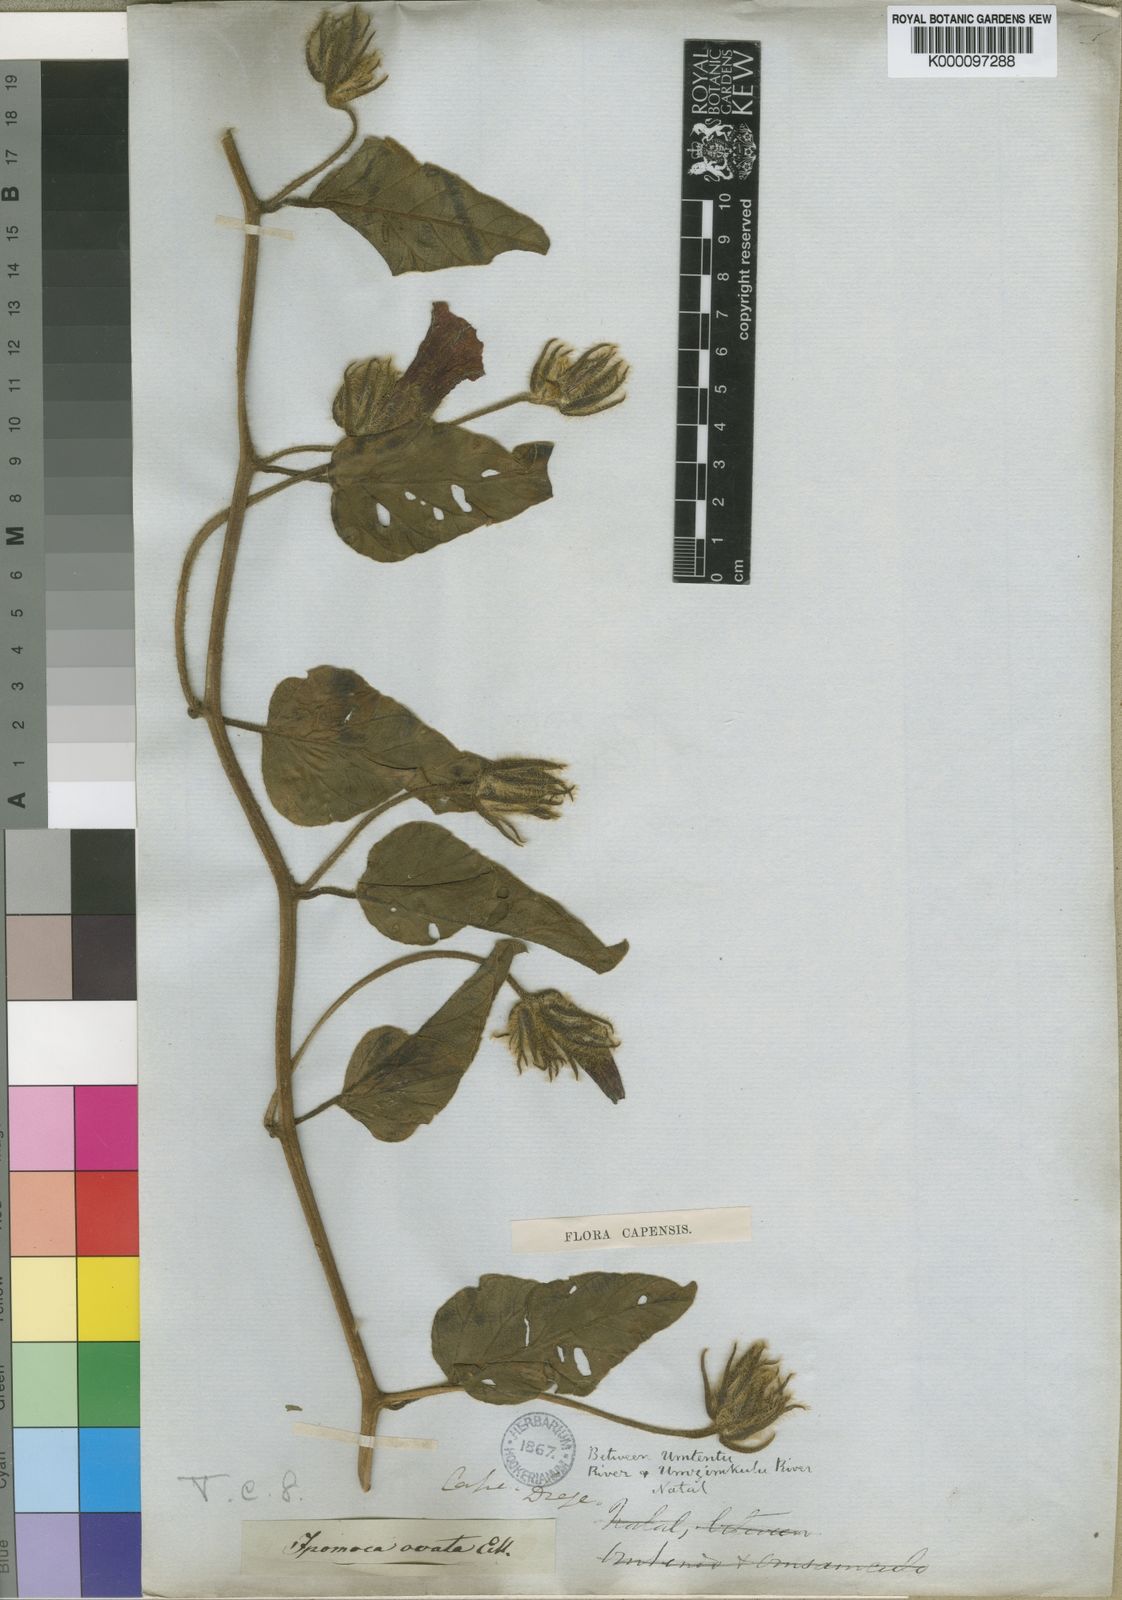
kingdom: Plantae
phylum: Tracheophyta
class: Magnoliopsida
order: Solanales
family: Convolvulaceae
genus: Ipomoea
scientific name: Ipomoea pellita
